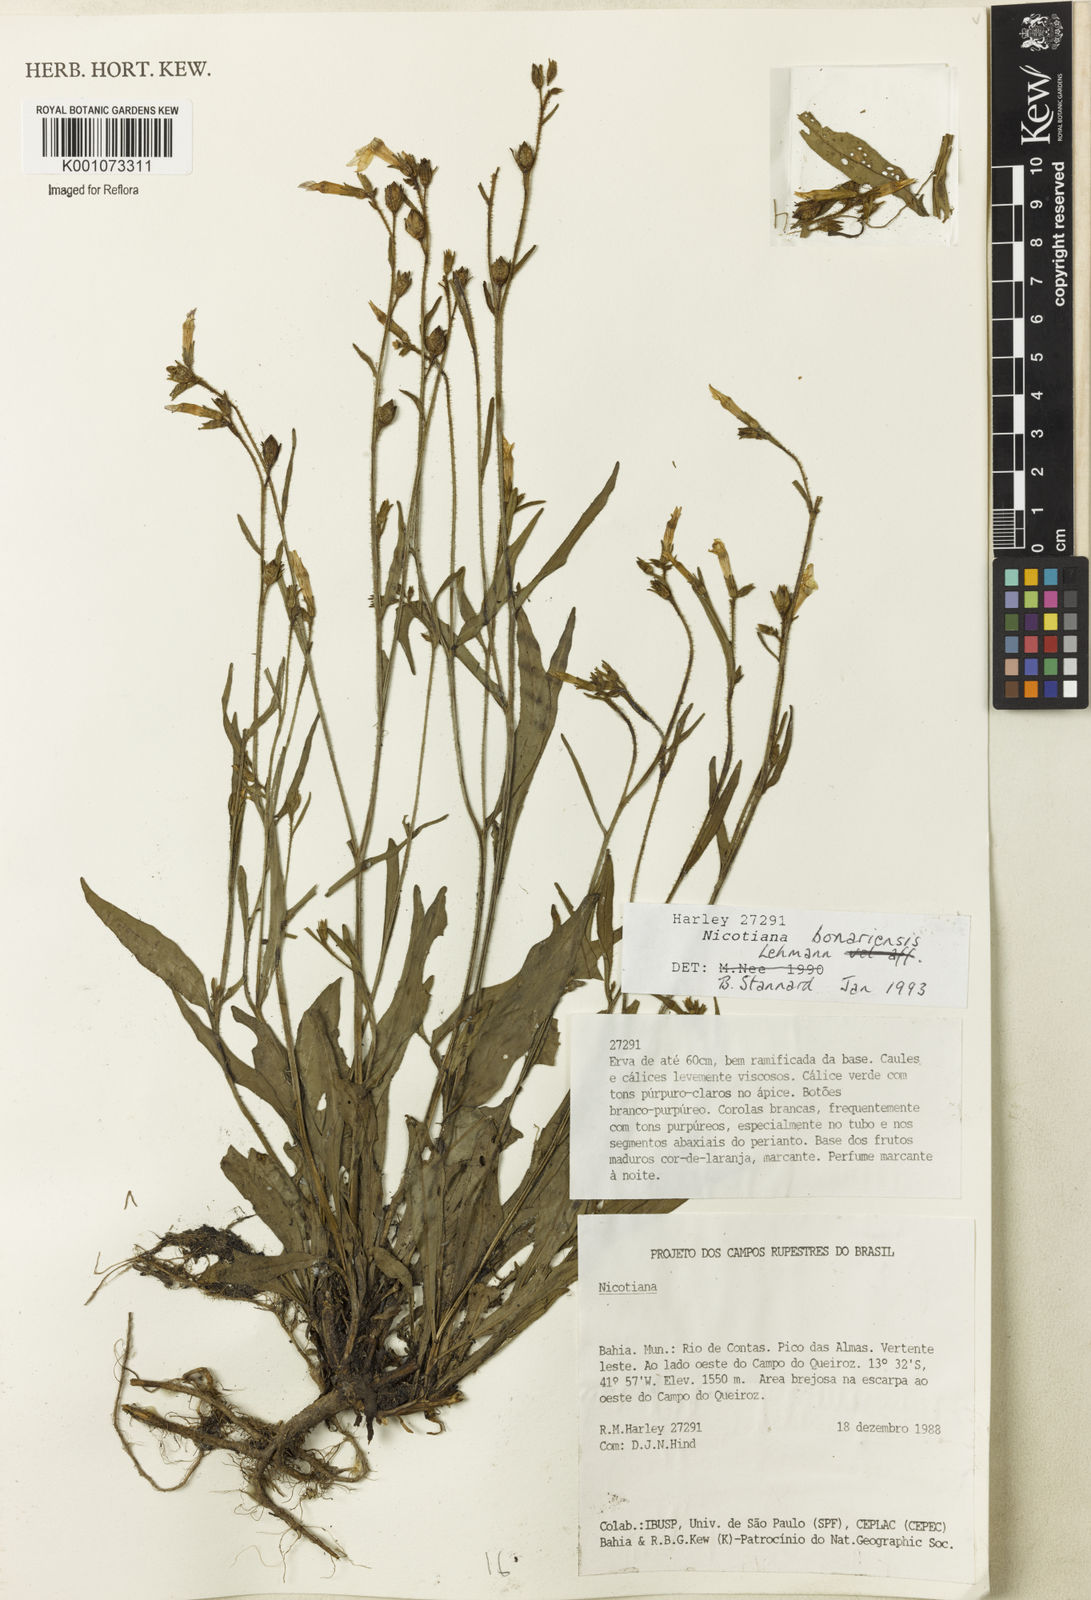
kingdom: Plantae
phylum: Tracheophyta
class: Magnoliopsida
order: Solanales
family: Solanaceae
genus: Nicotiana
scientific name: Nicotiana bonariensis
